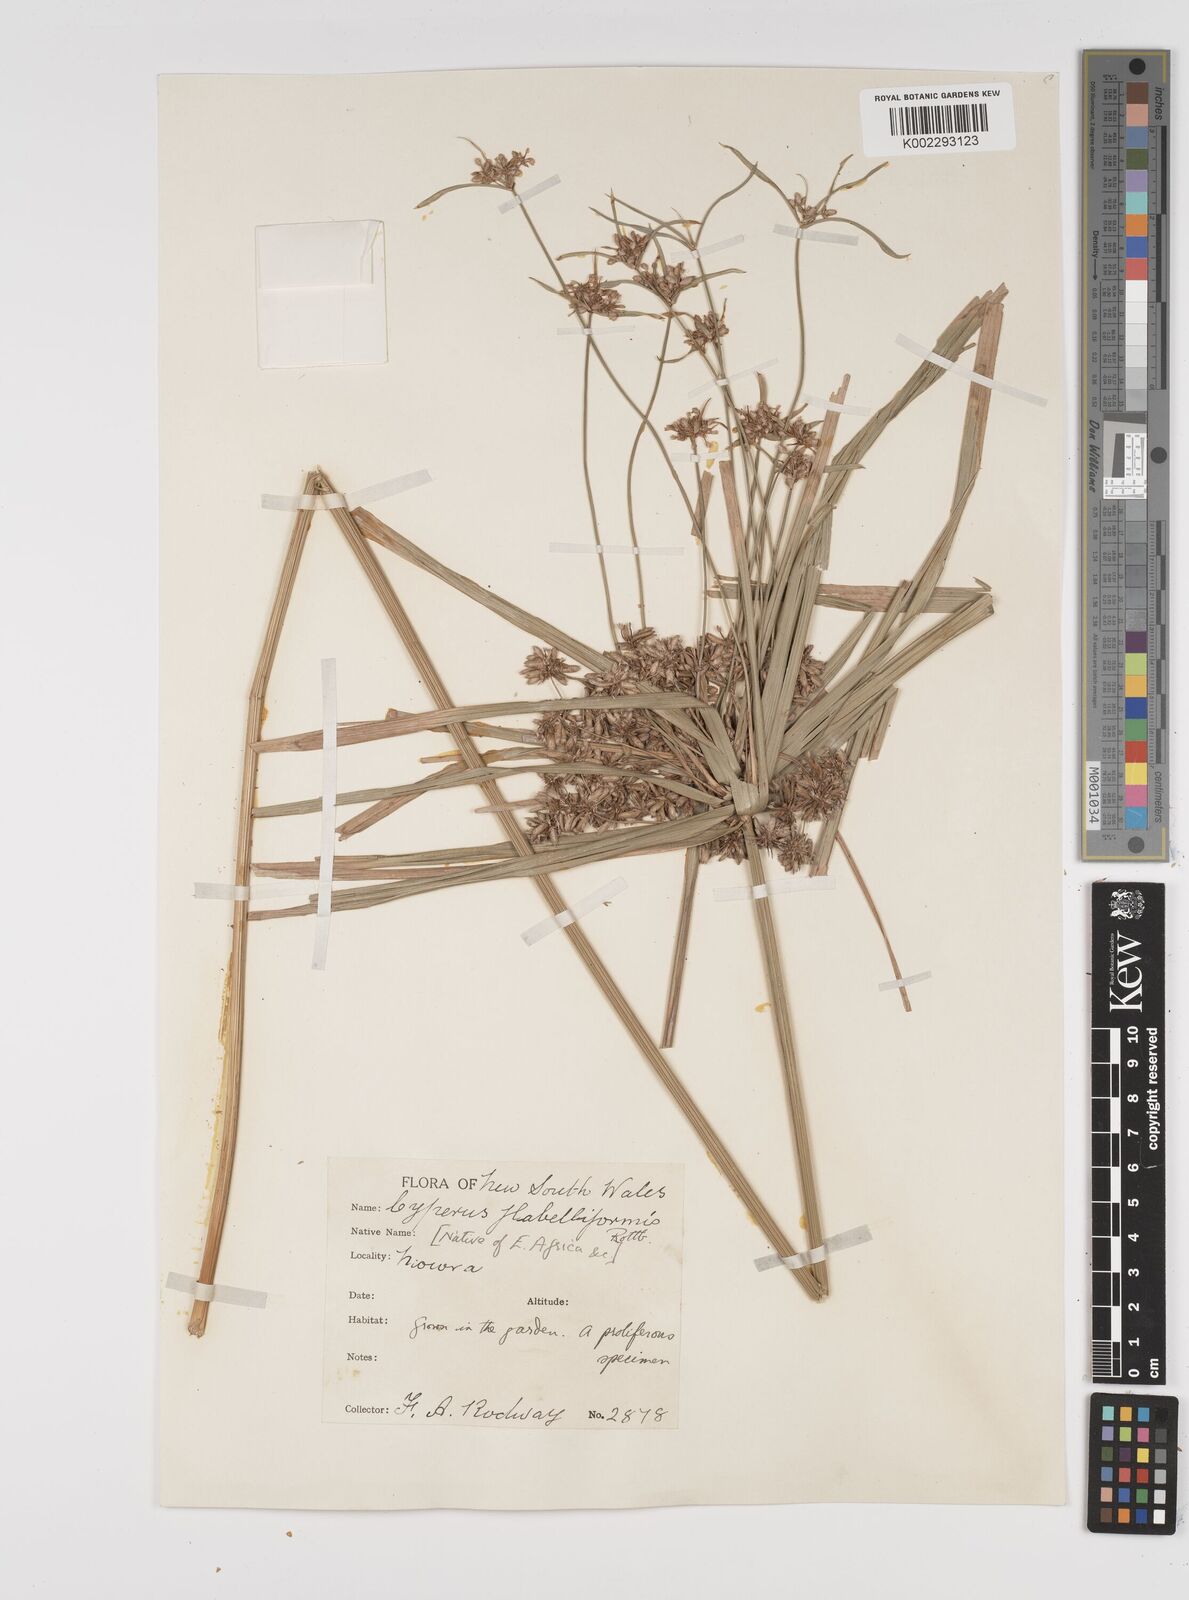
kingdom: Plantae
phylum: Tracheophyta
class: Liliopsida
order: Poales
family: Cyperaceae
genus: Cyperus
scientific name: Cyperus alternifolius
